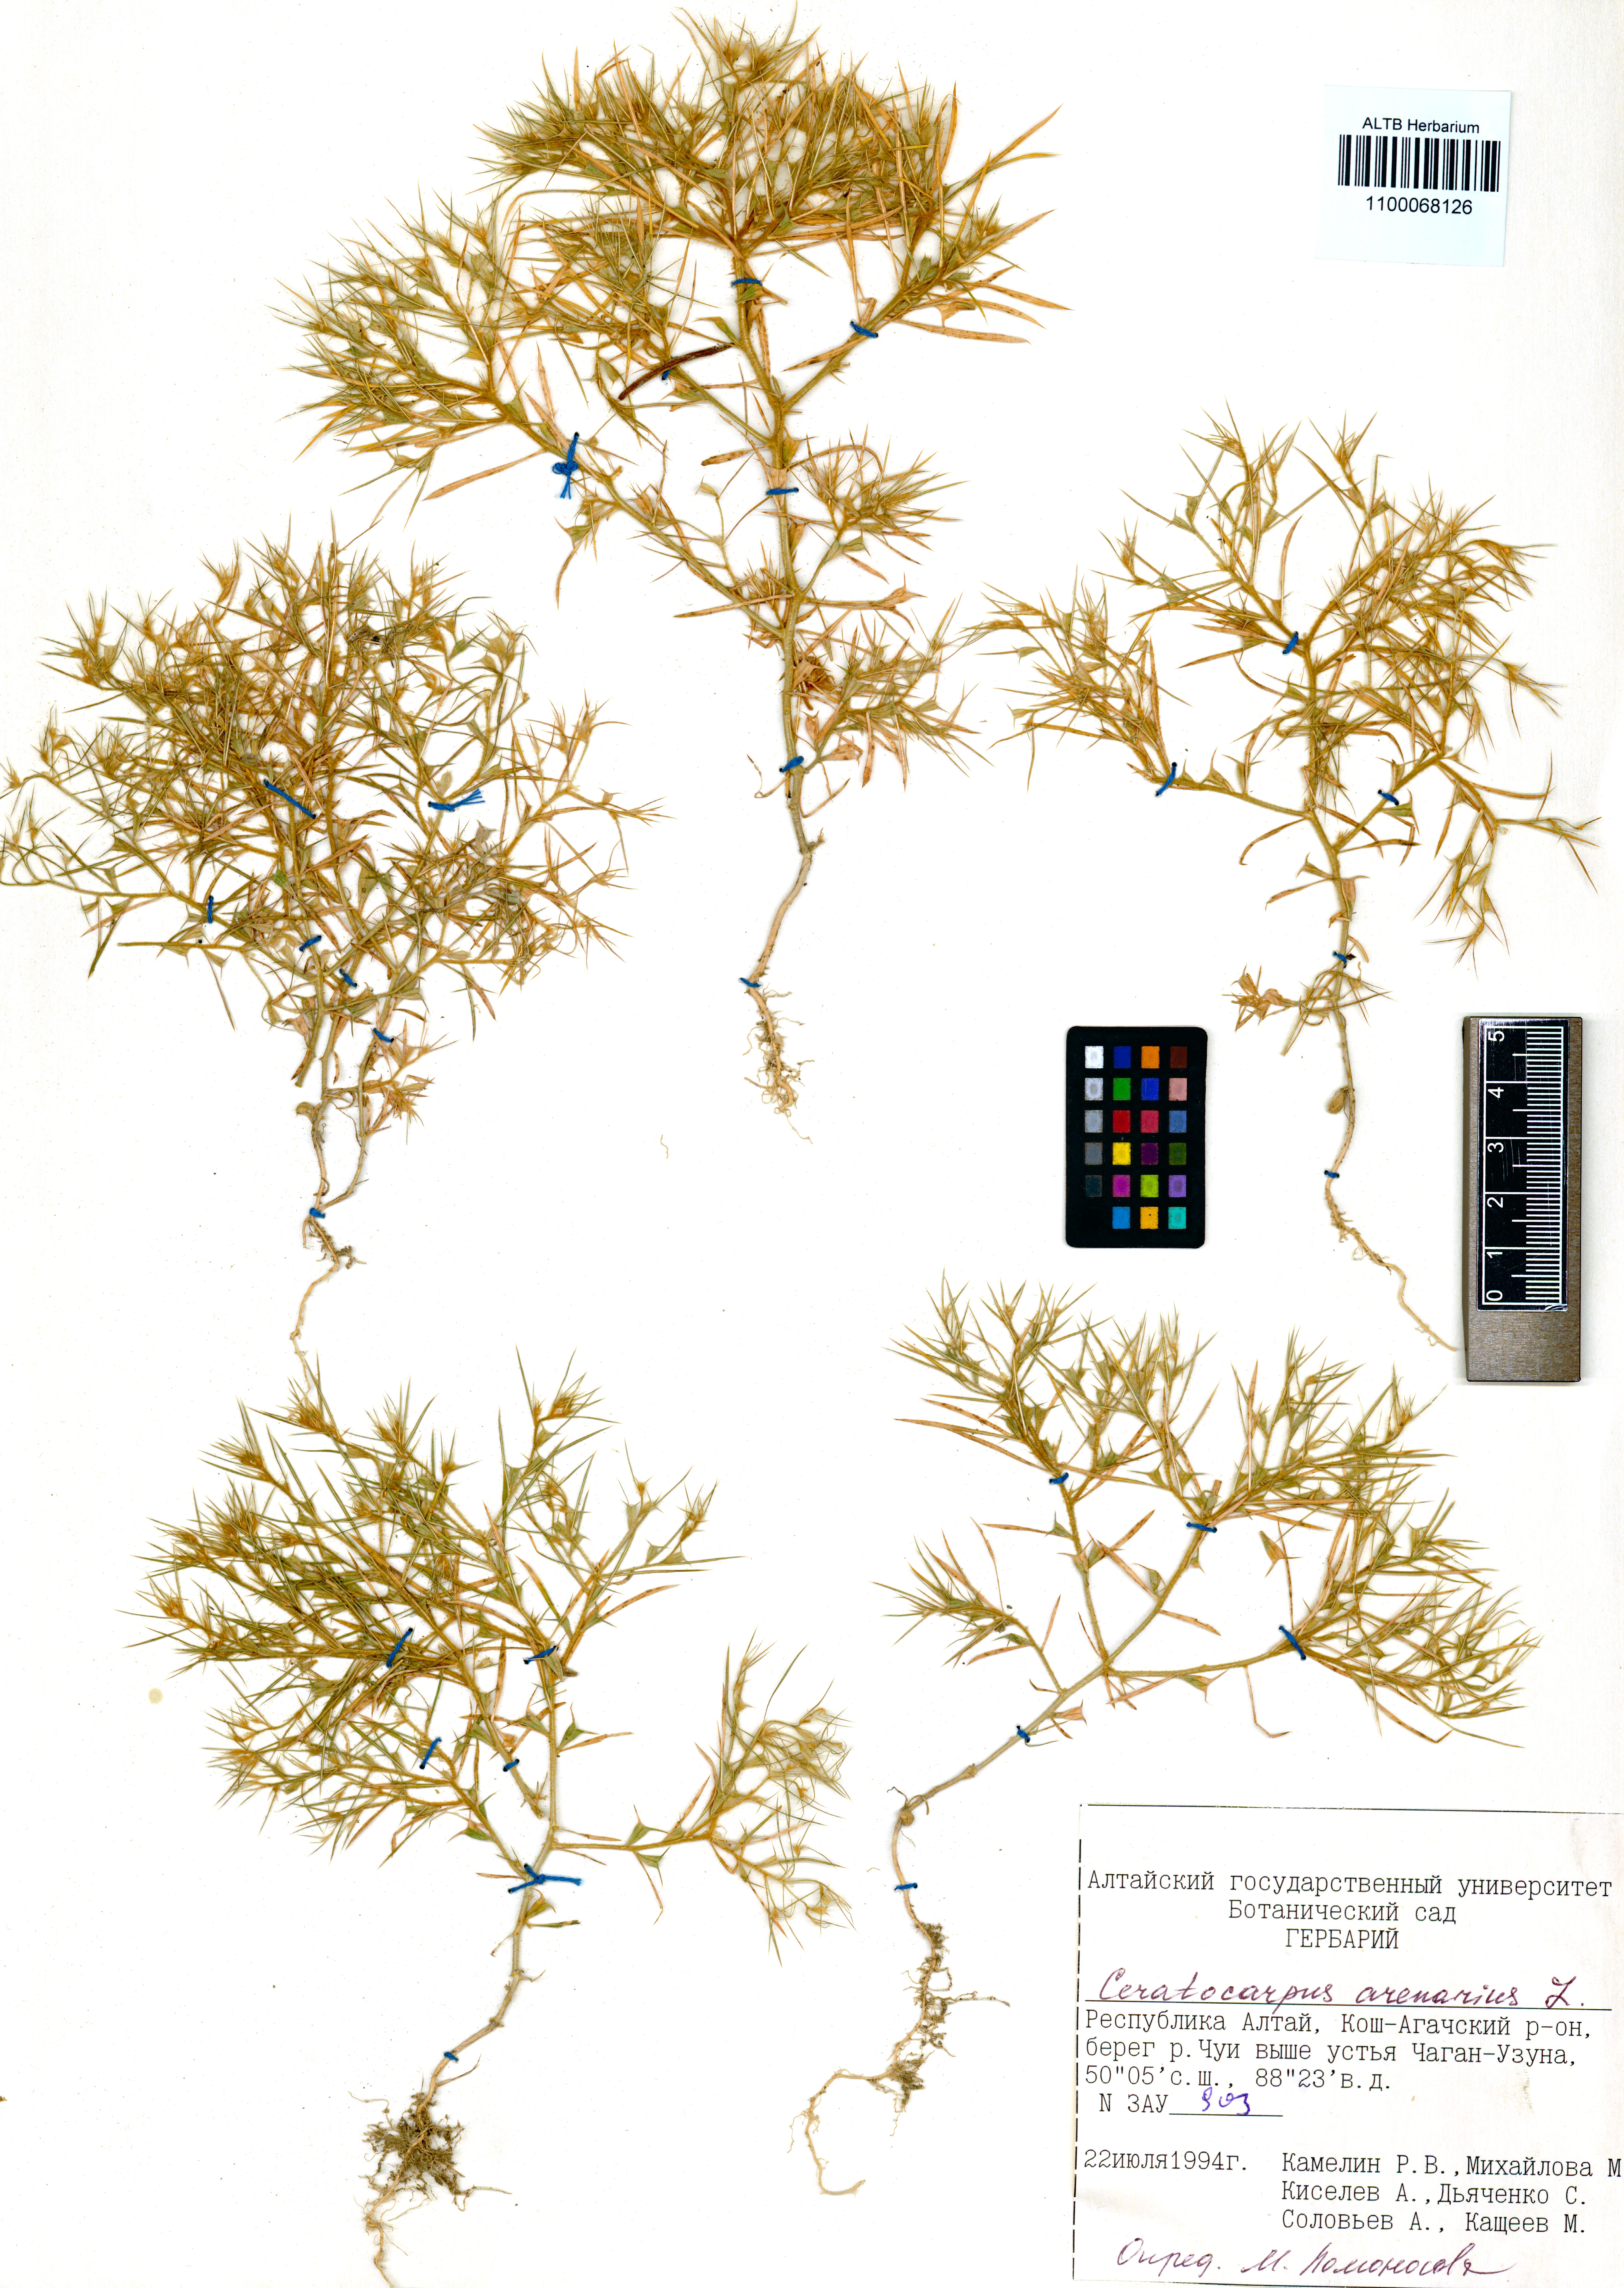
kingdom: Plantae
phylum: Tracheophyta
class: Magnoliopsida
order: Caryophyllales
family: Amaranthaceae
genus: Ceratocarpus
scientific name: Ceratocarpus arenarius
